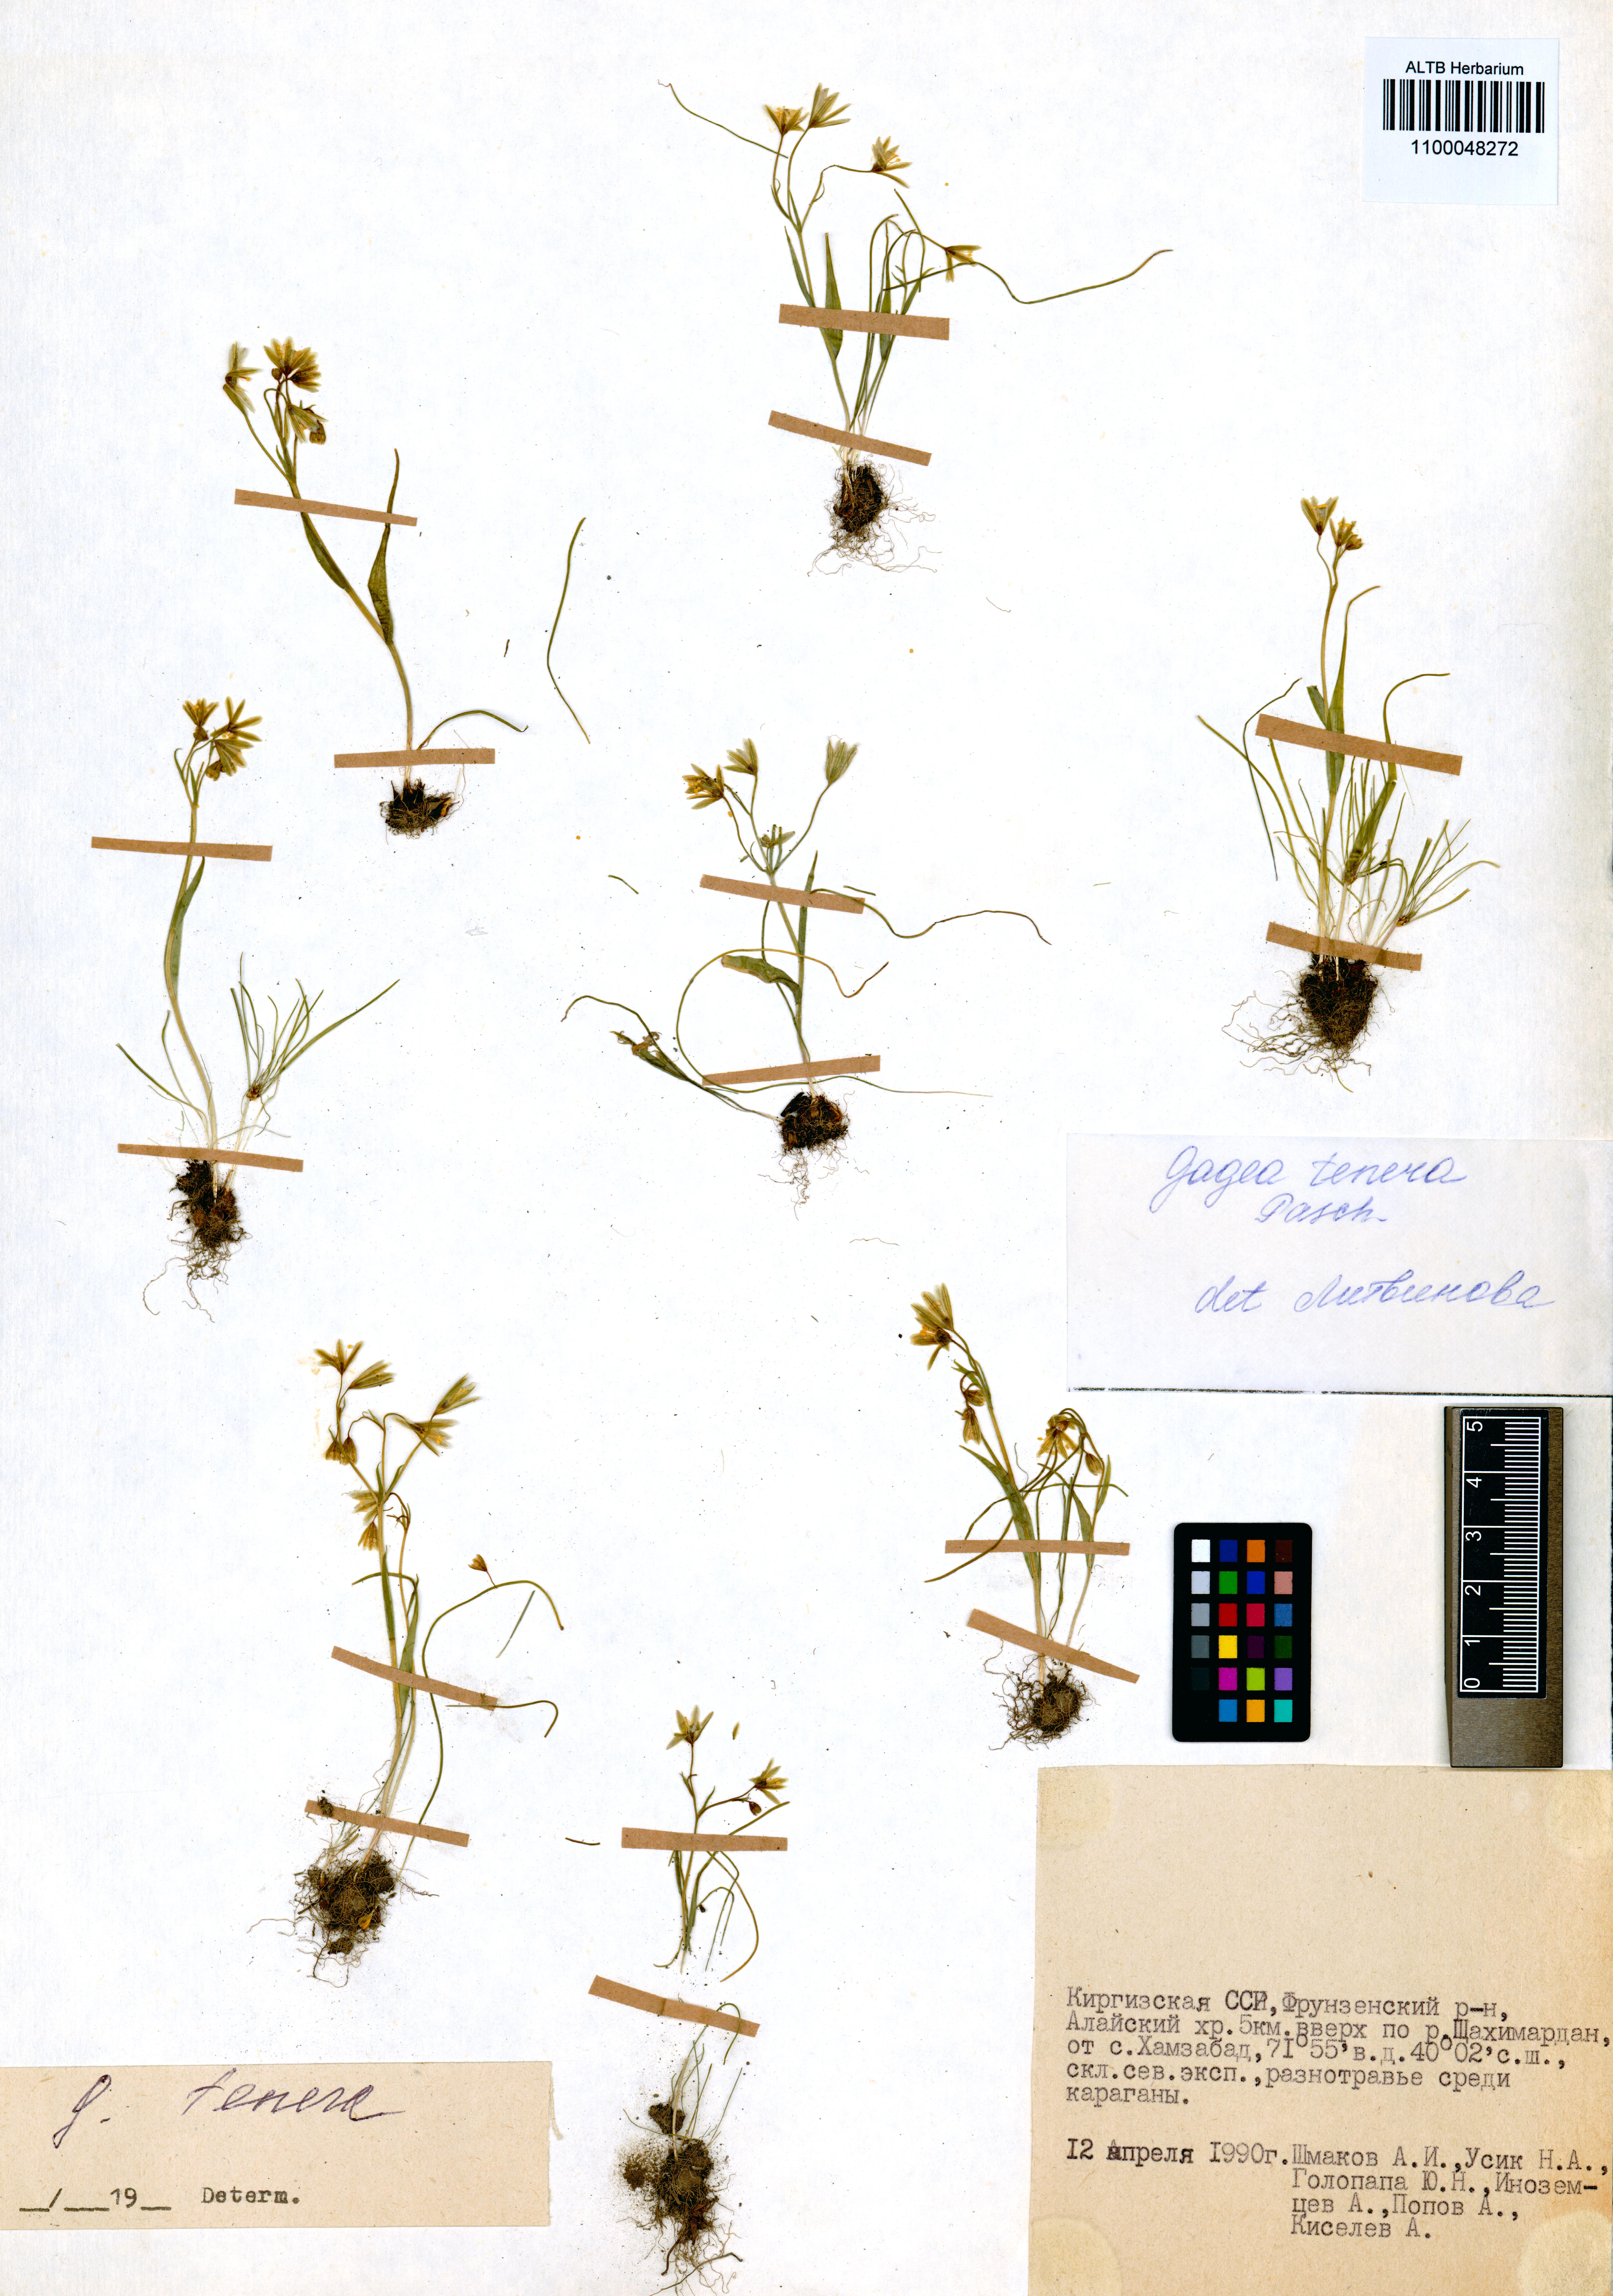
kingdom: Plantae
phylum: Tracheophyta
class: Liliopsida
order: Liliales
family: Liliaceae
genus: Gagea
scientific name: Gagea tenera
